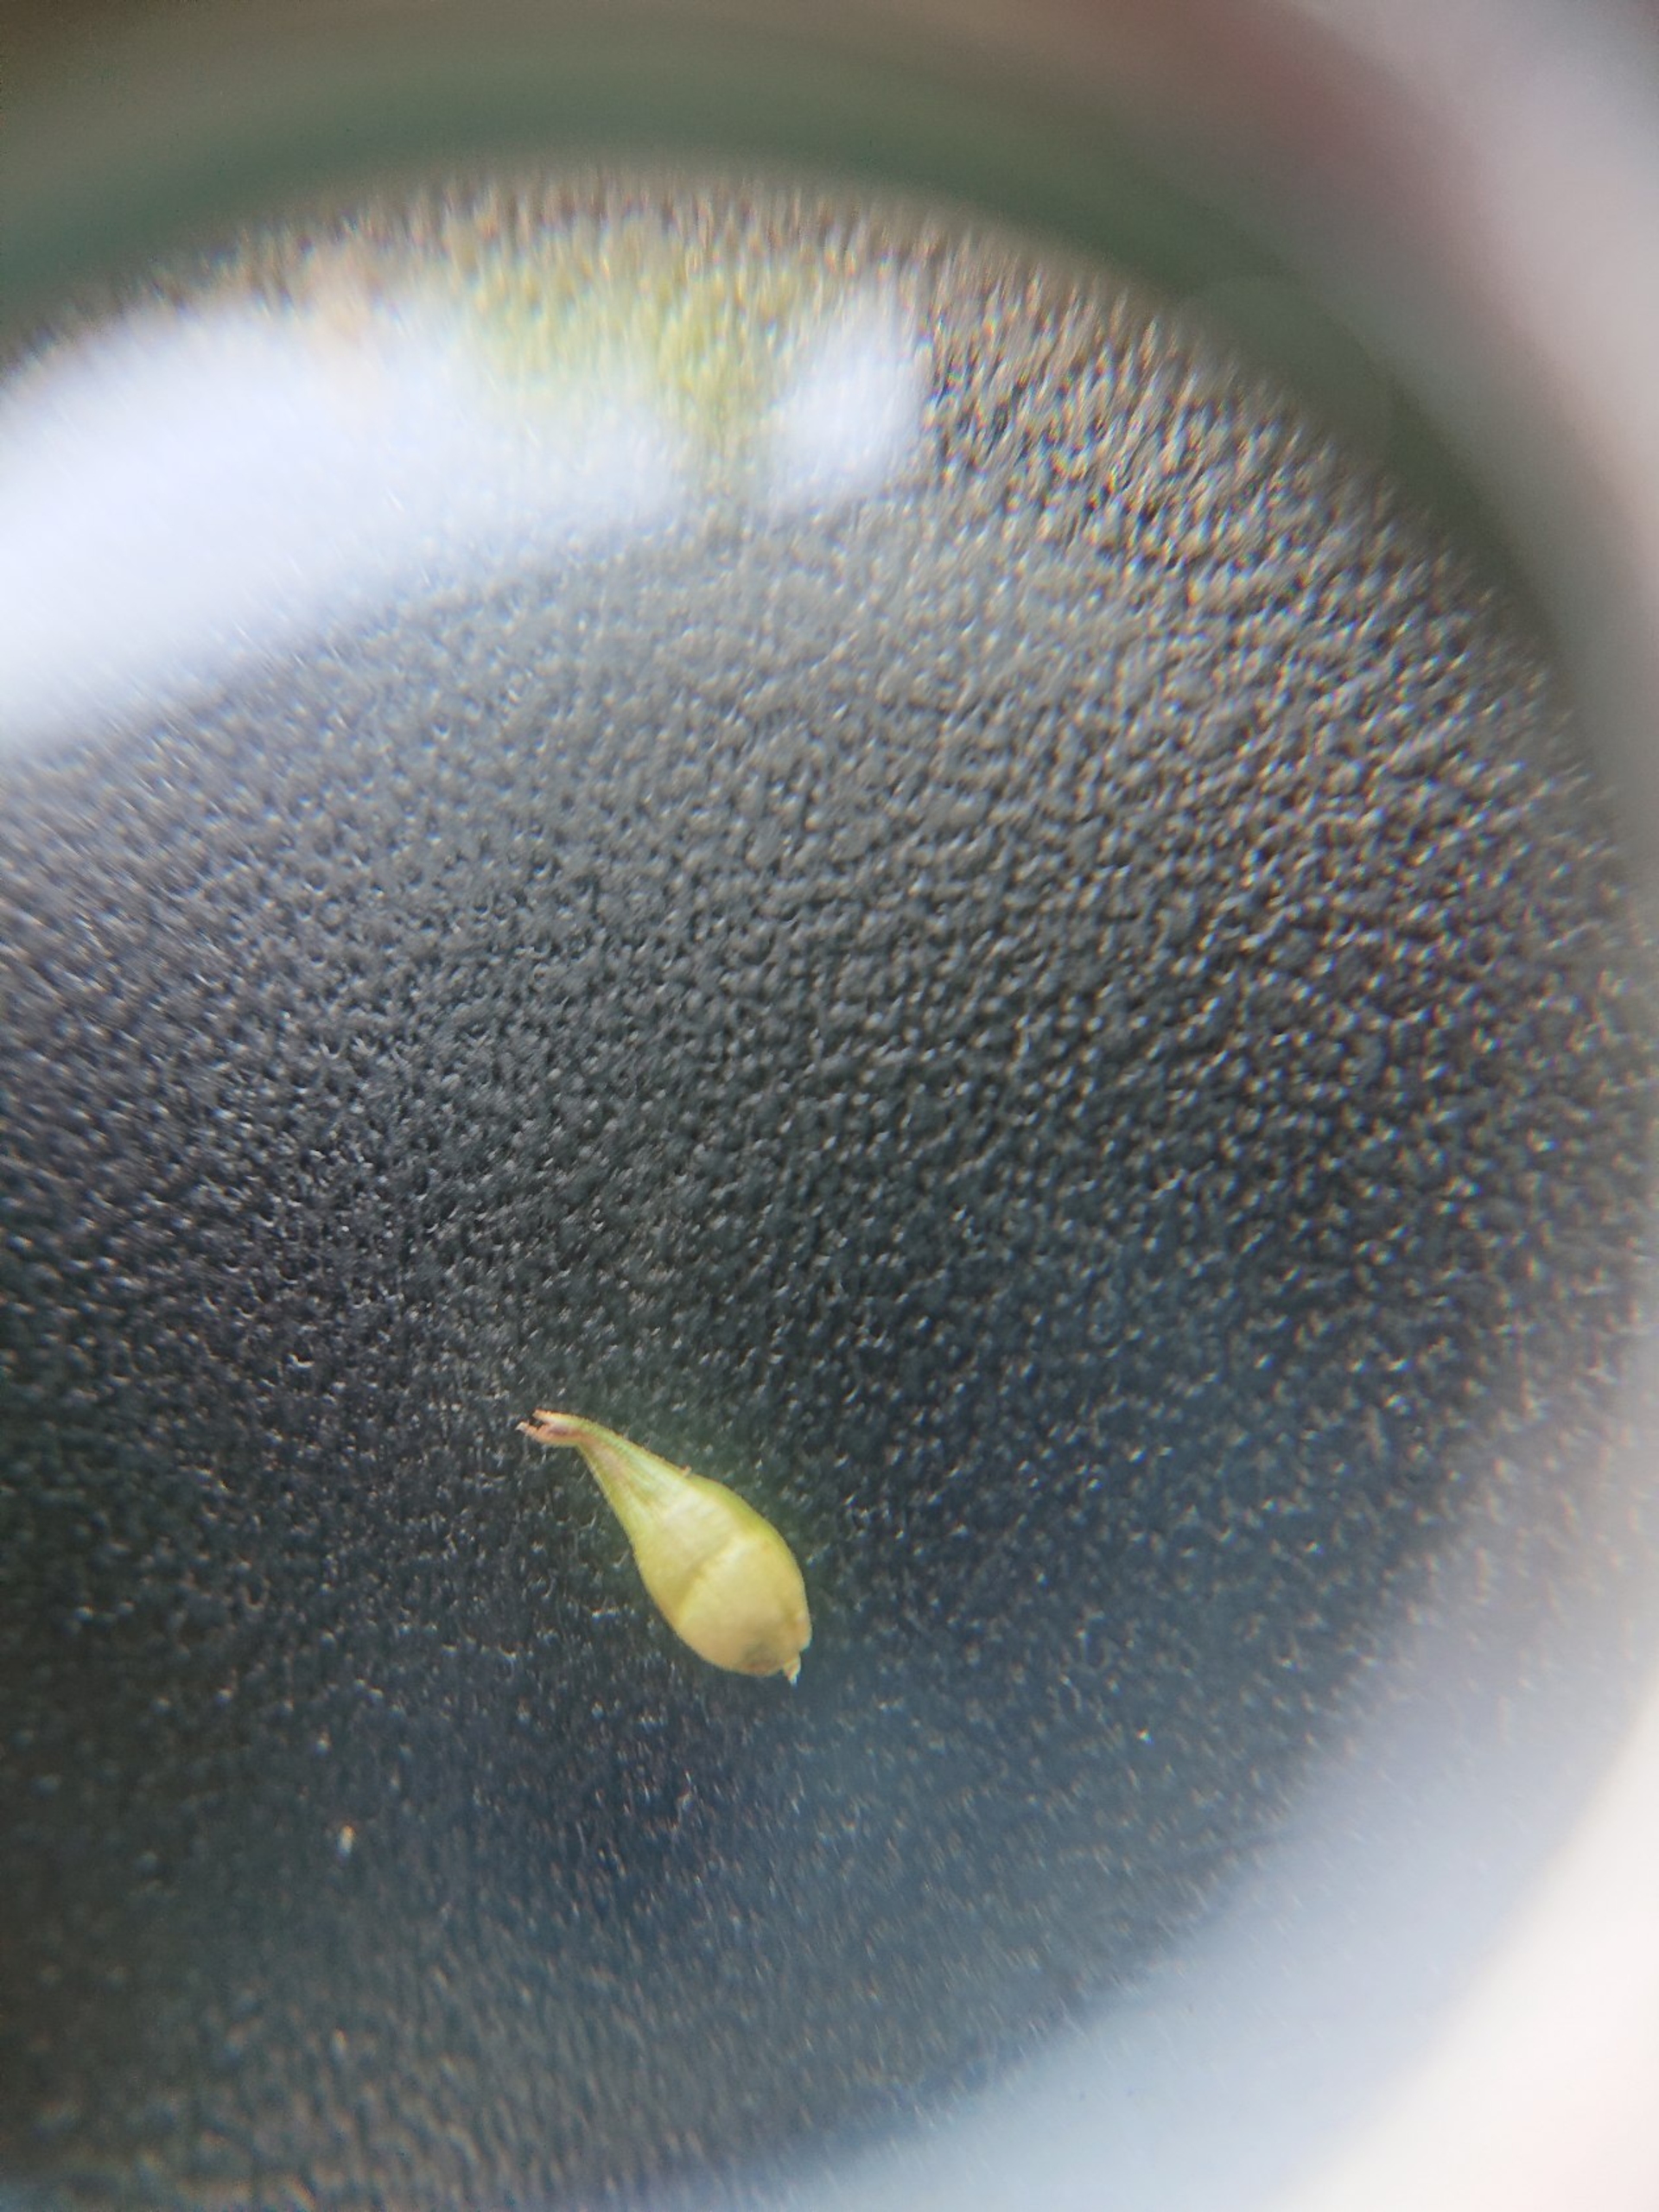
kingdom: Plantae
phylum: Tracheophyta
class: Liliopsida
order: Poales
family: Cyperaceae
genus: Carex
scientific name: Carex spicata
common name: Spidskapslet star
